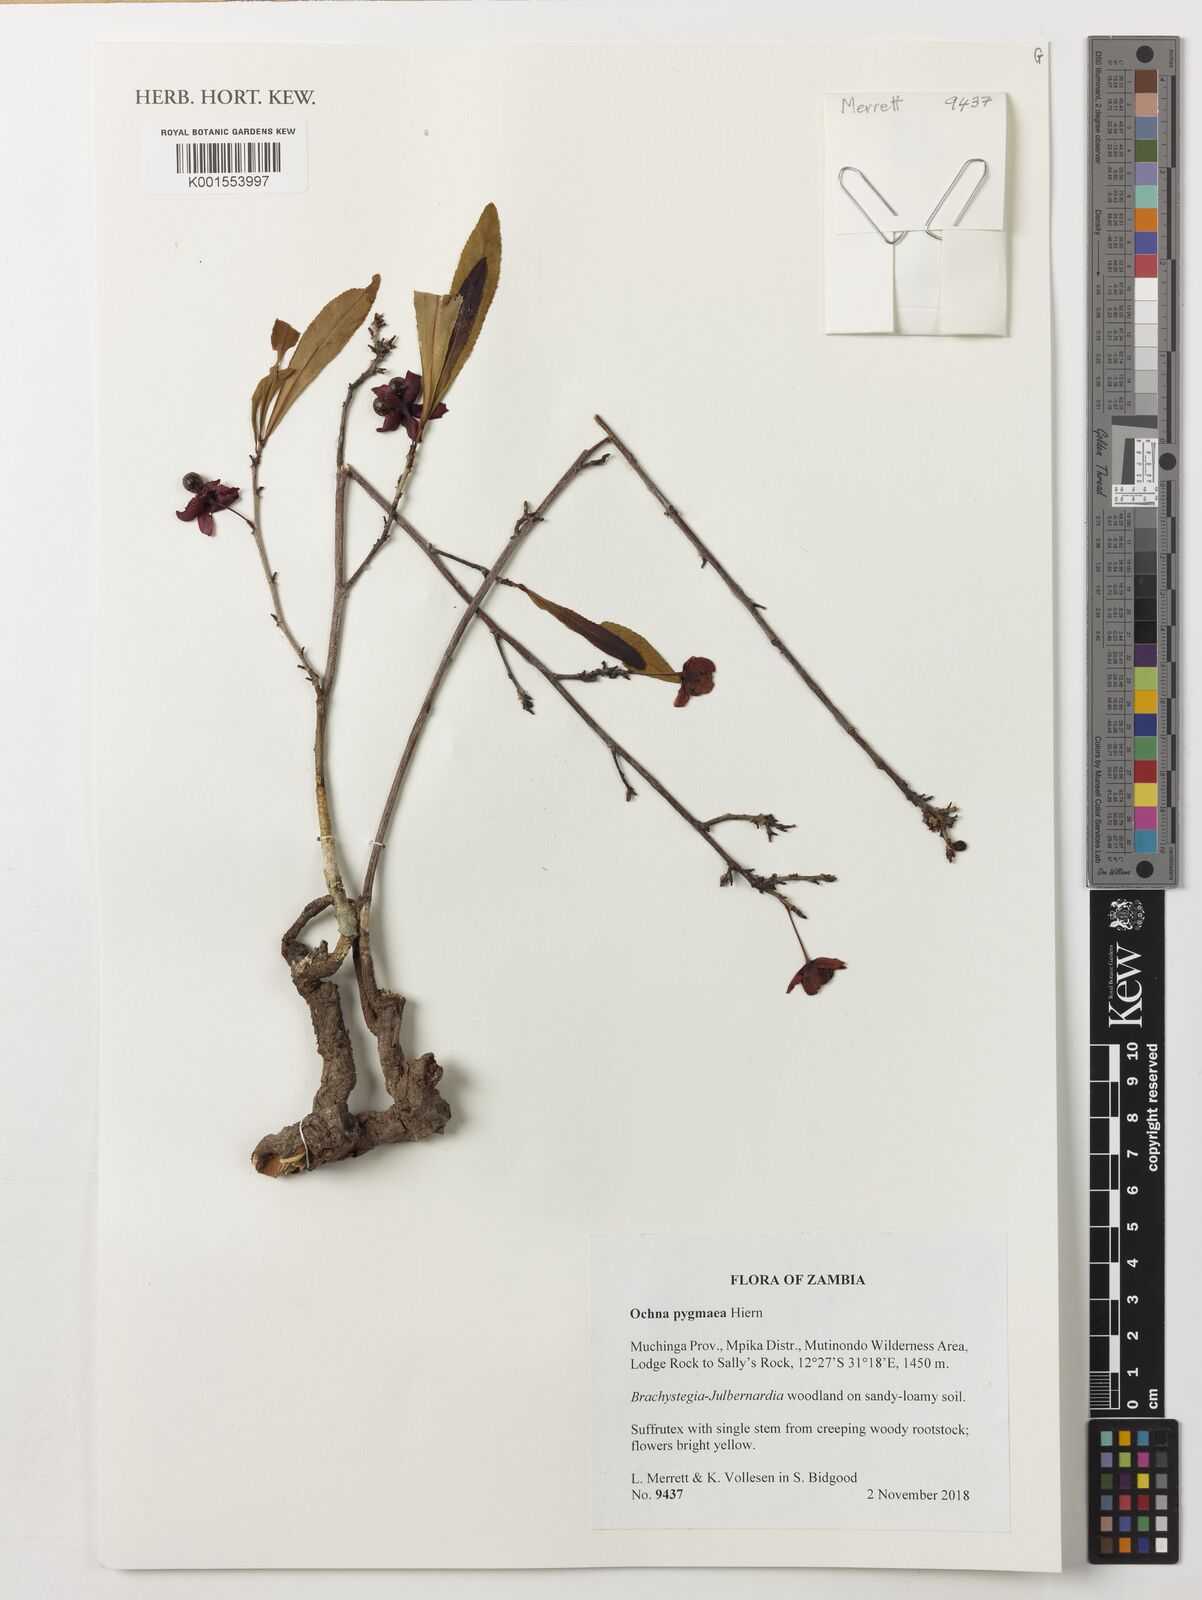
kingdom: Plantae
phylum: Tracheophyta
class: Magnoliopsida
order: Malpighiales
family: Ochnaceae
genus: Ochna
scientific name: Ochna pygmaea
